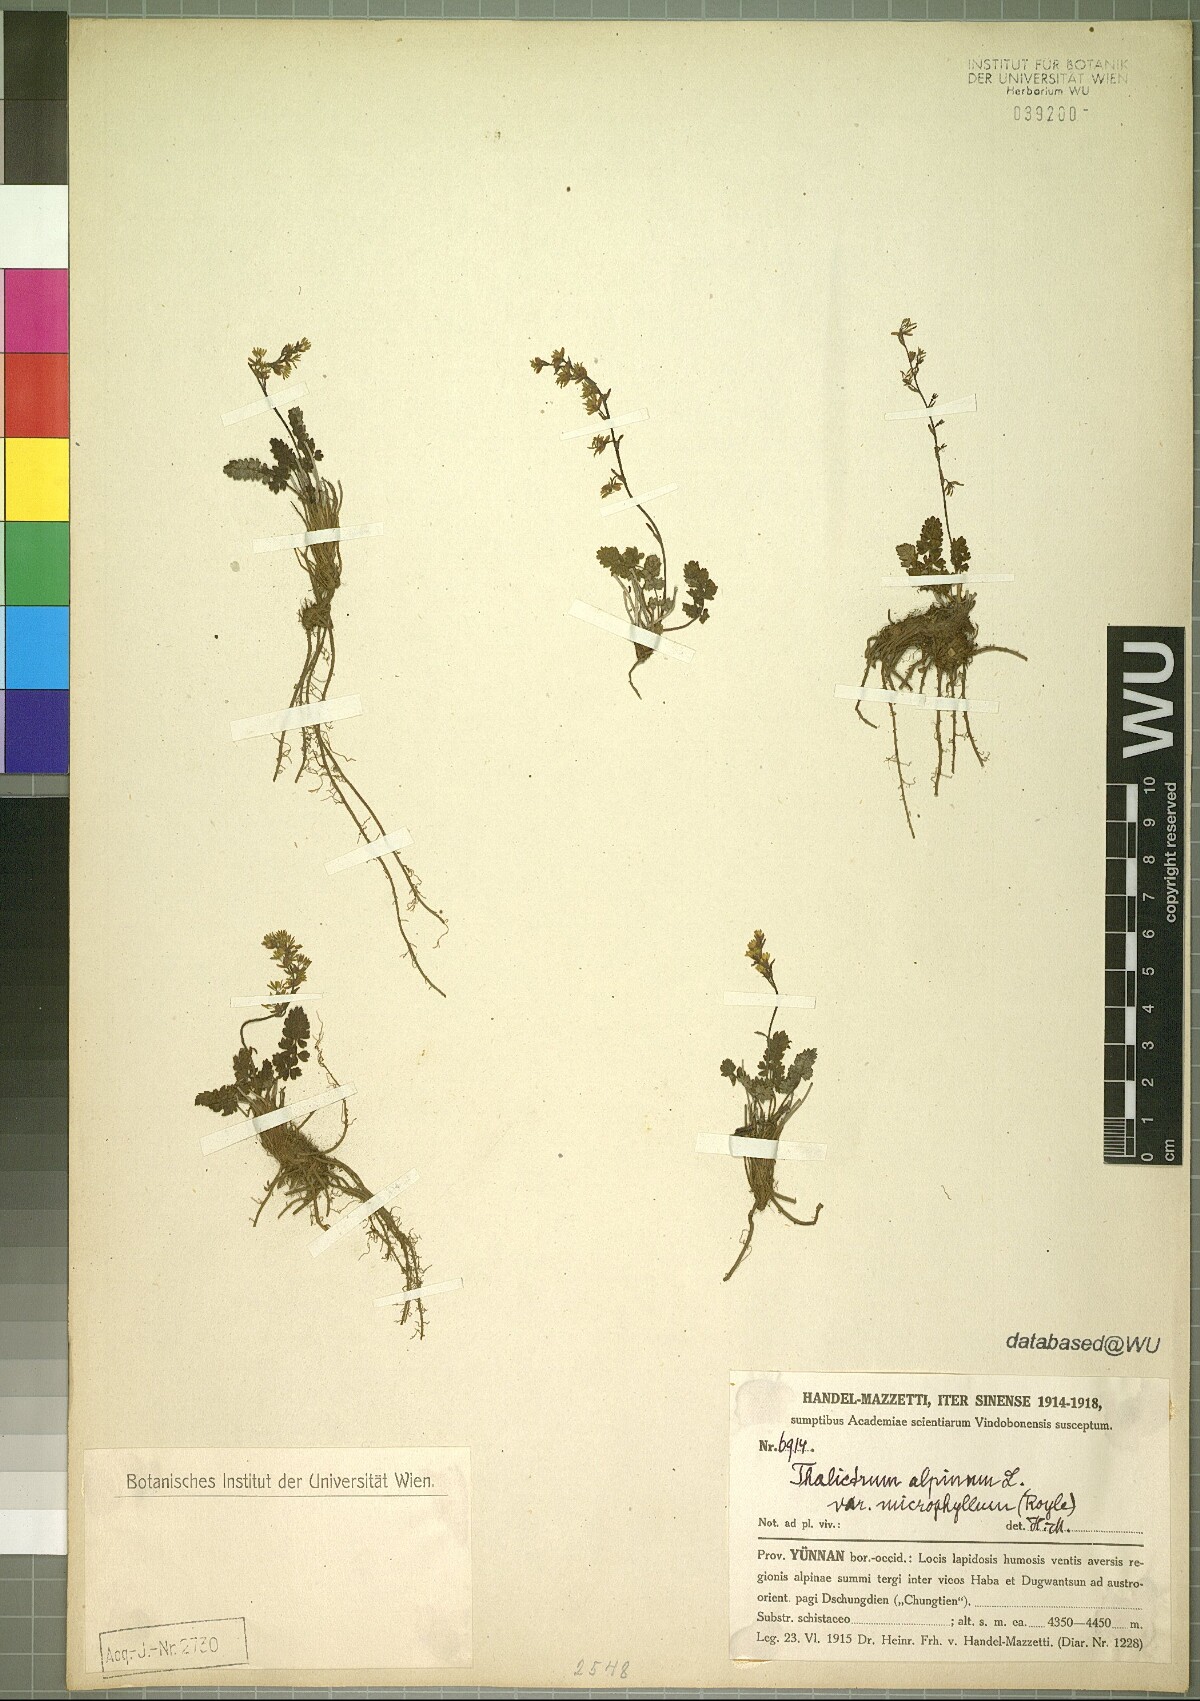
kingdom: Plantae
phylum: Tracheophyta
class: Magnoliopsida
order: Ranunculales
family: Ranunculaceae
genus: Thalictrum
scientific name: Thalictrum alpinum
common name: Alpine meadow-rue
